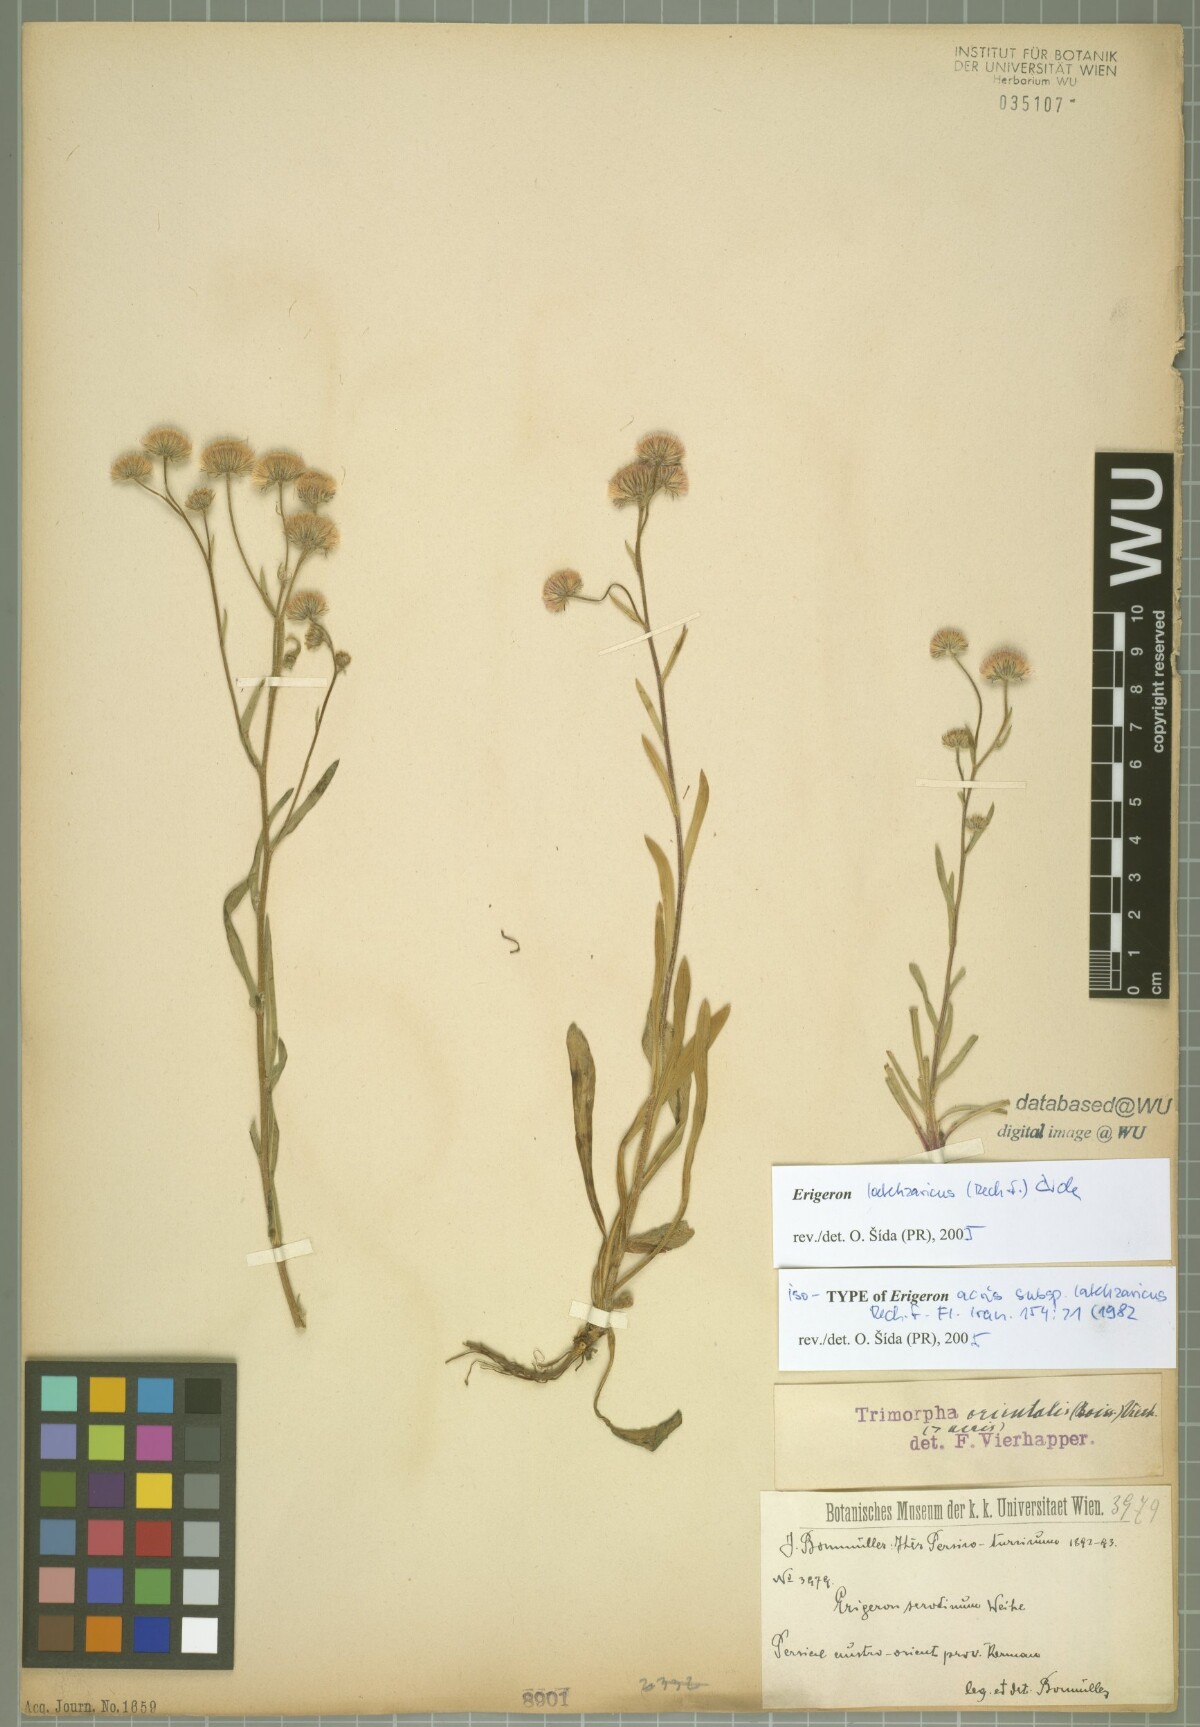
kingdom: Plantae
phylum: Tracheophyta
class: Magnoliopsida
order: Asterales
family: Asteraceae
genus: Erigeron
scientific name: Erigeron lalehzaricus
